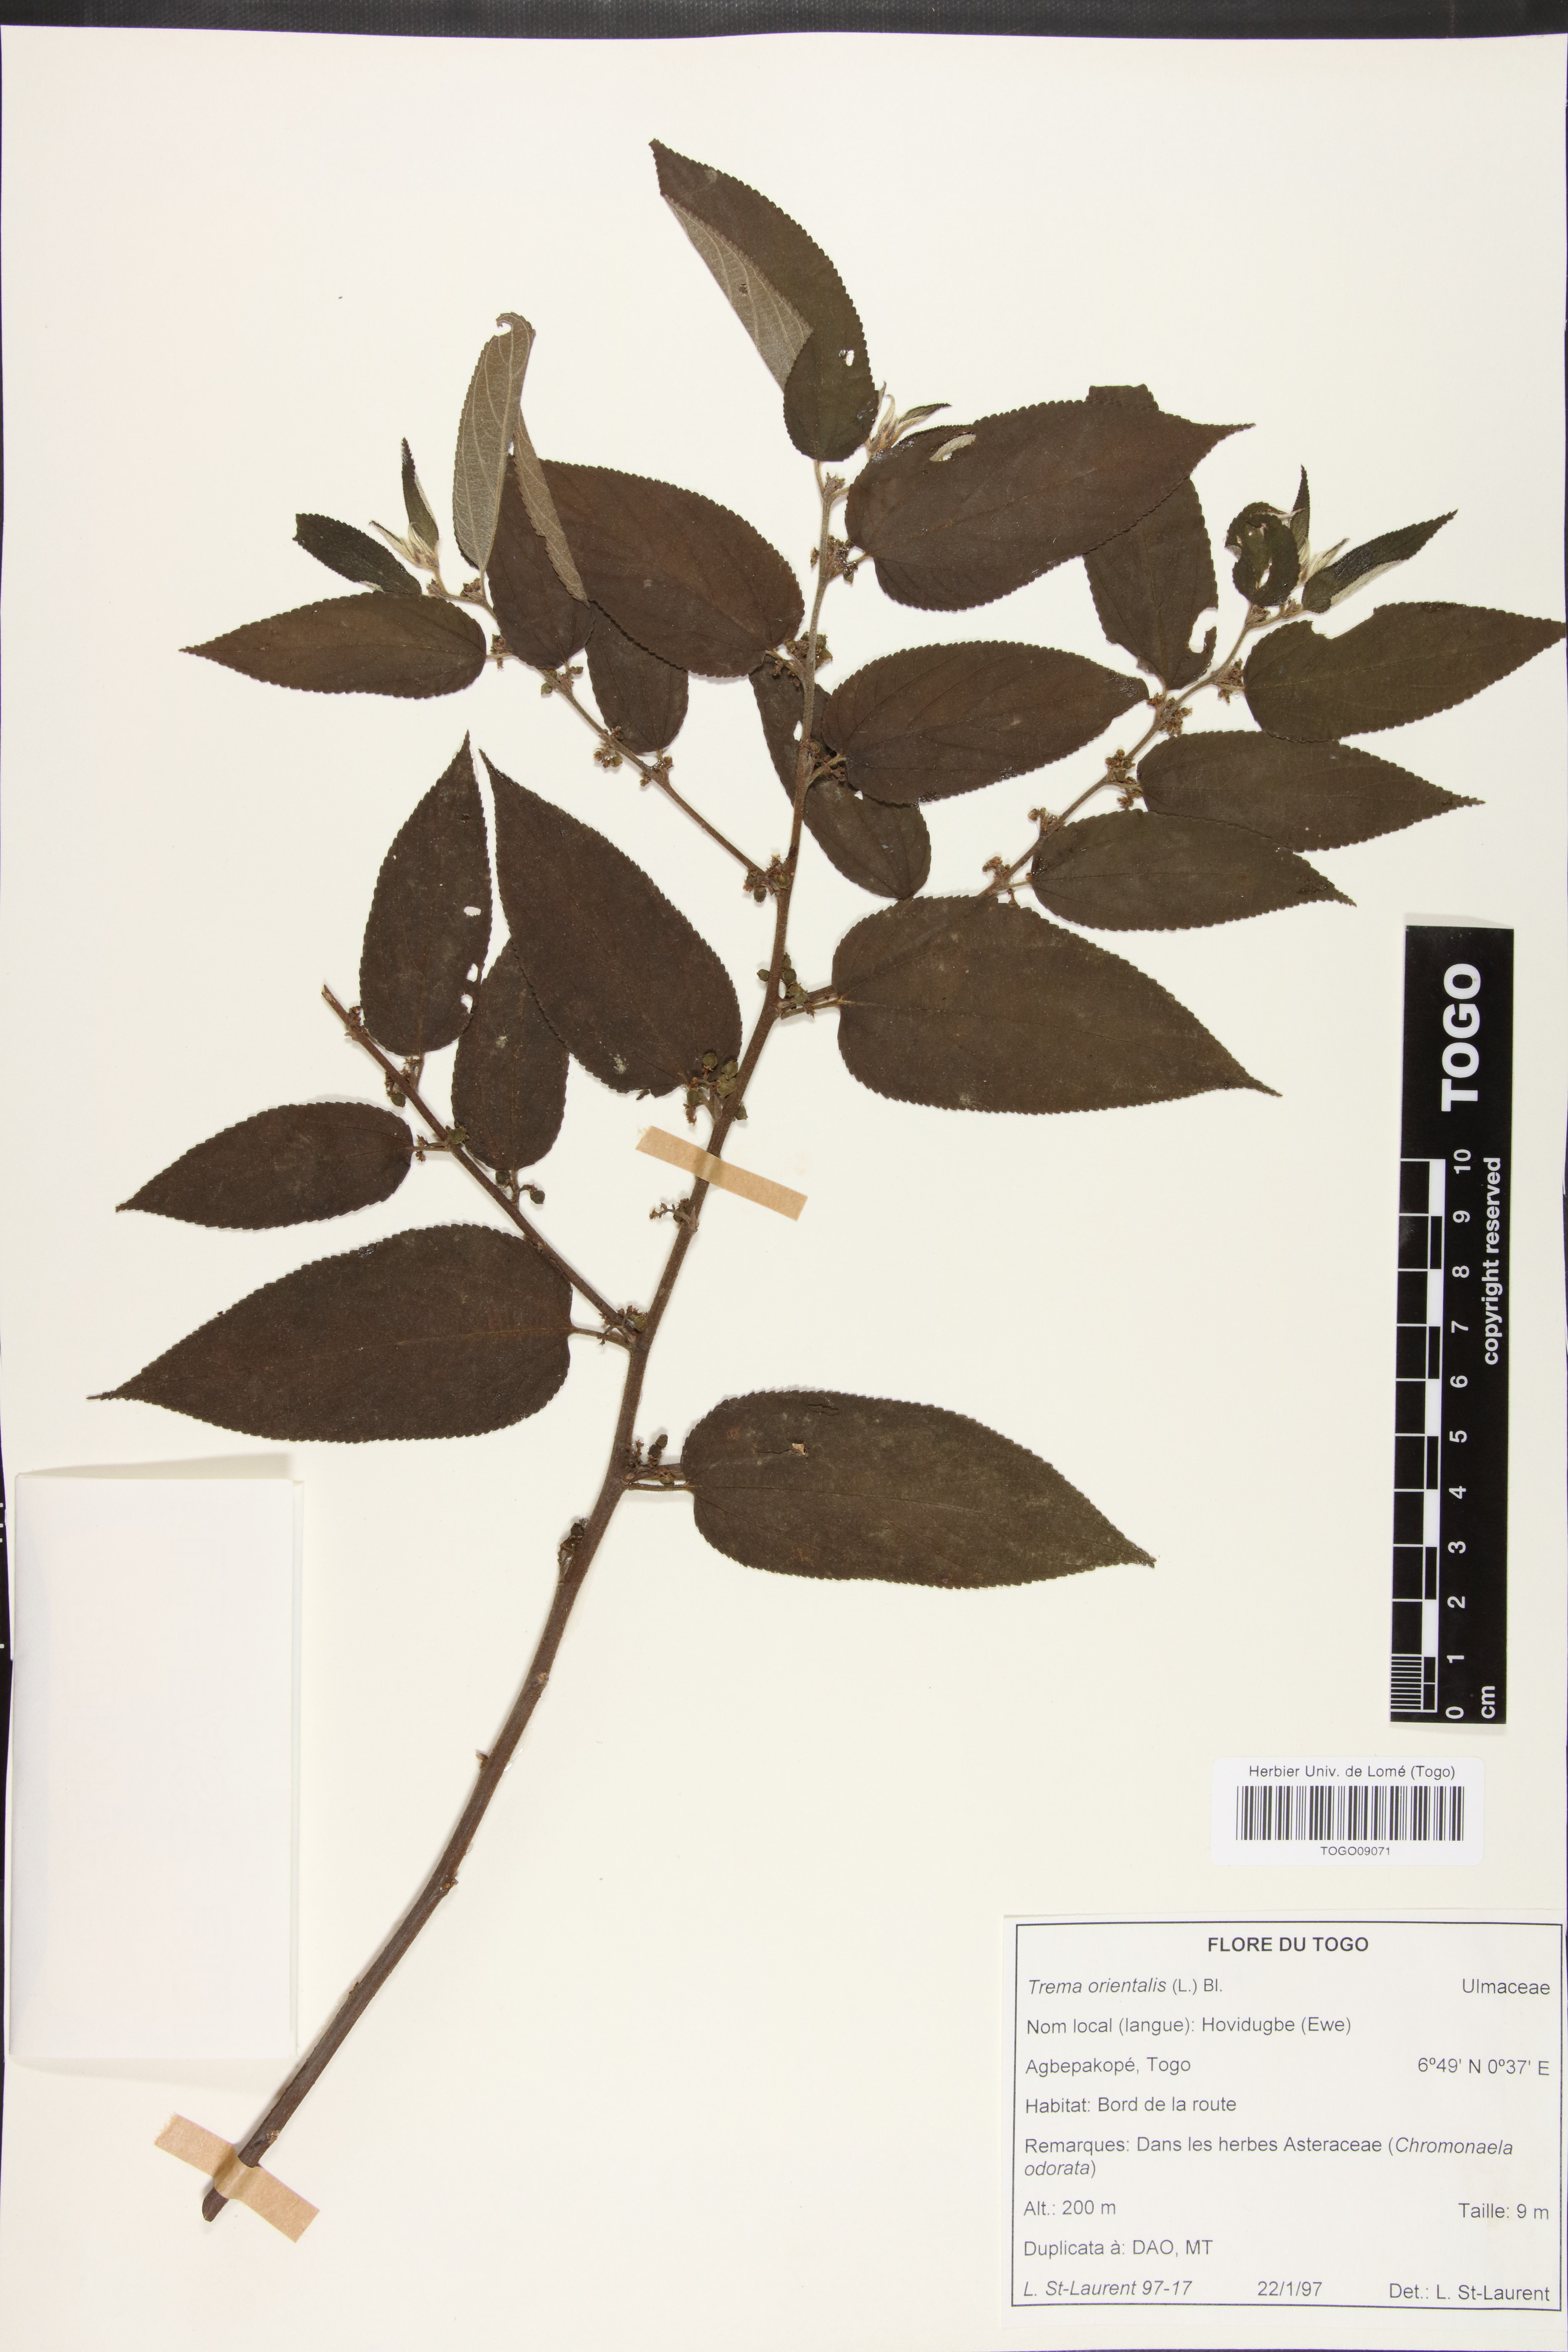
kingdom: Plantae
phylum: Tracheophyta
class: Magnoliopsida
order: Rosales
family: Cannabaceae
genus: Trema
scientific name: Trema orientale
